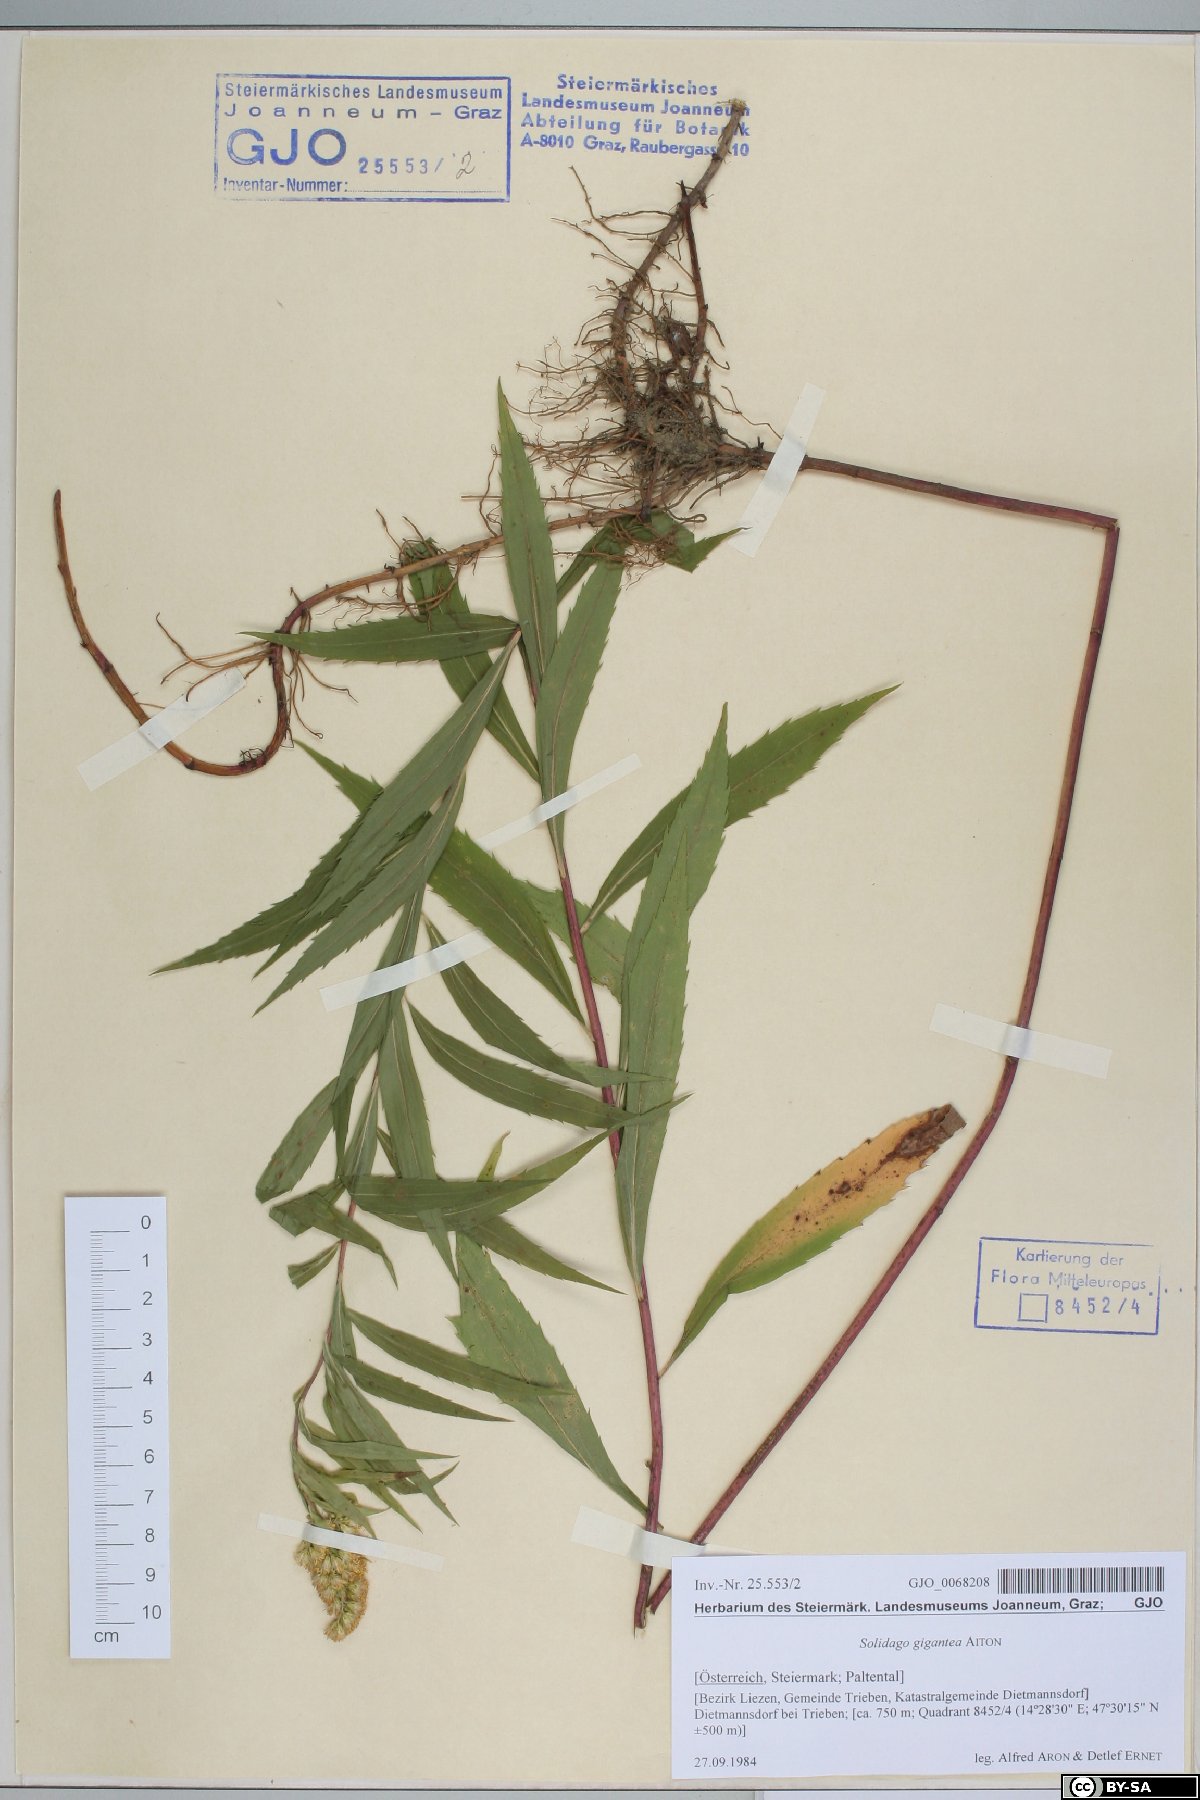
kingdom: Plantae
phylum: Tracheophyta
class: Magnoliopsida
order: Asterales
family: Asteraceae
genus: Solidago
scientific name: Solidago gigantea
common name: Giant goldenrod
